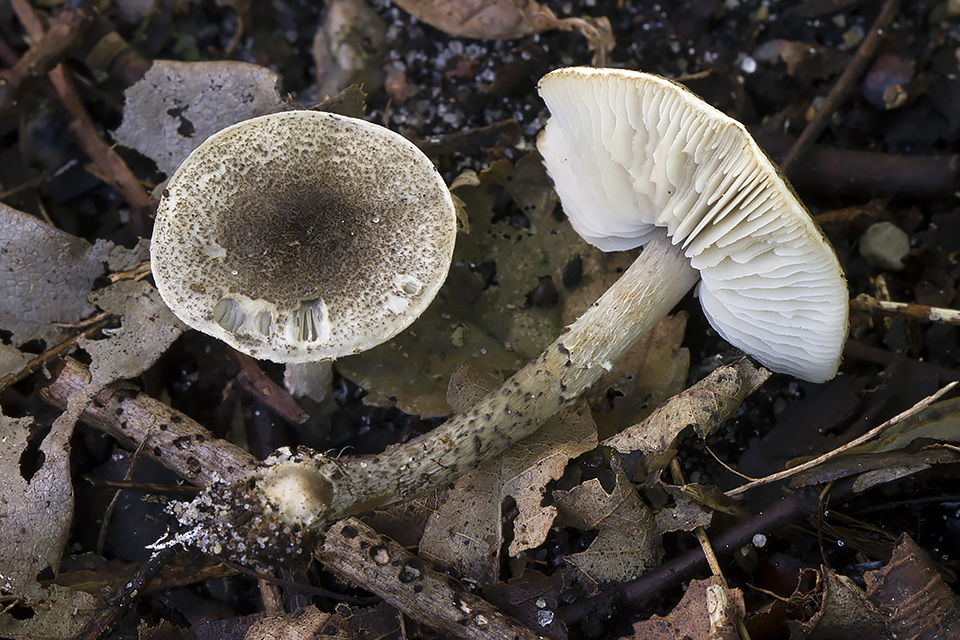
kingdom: Fungi
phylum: Basidiomycota
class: Agaricomycetes
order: Agaricales
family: Agaricaceae
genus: Lepiota
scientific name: Lepiota griseovirens
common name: grågrøn parasolhat
